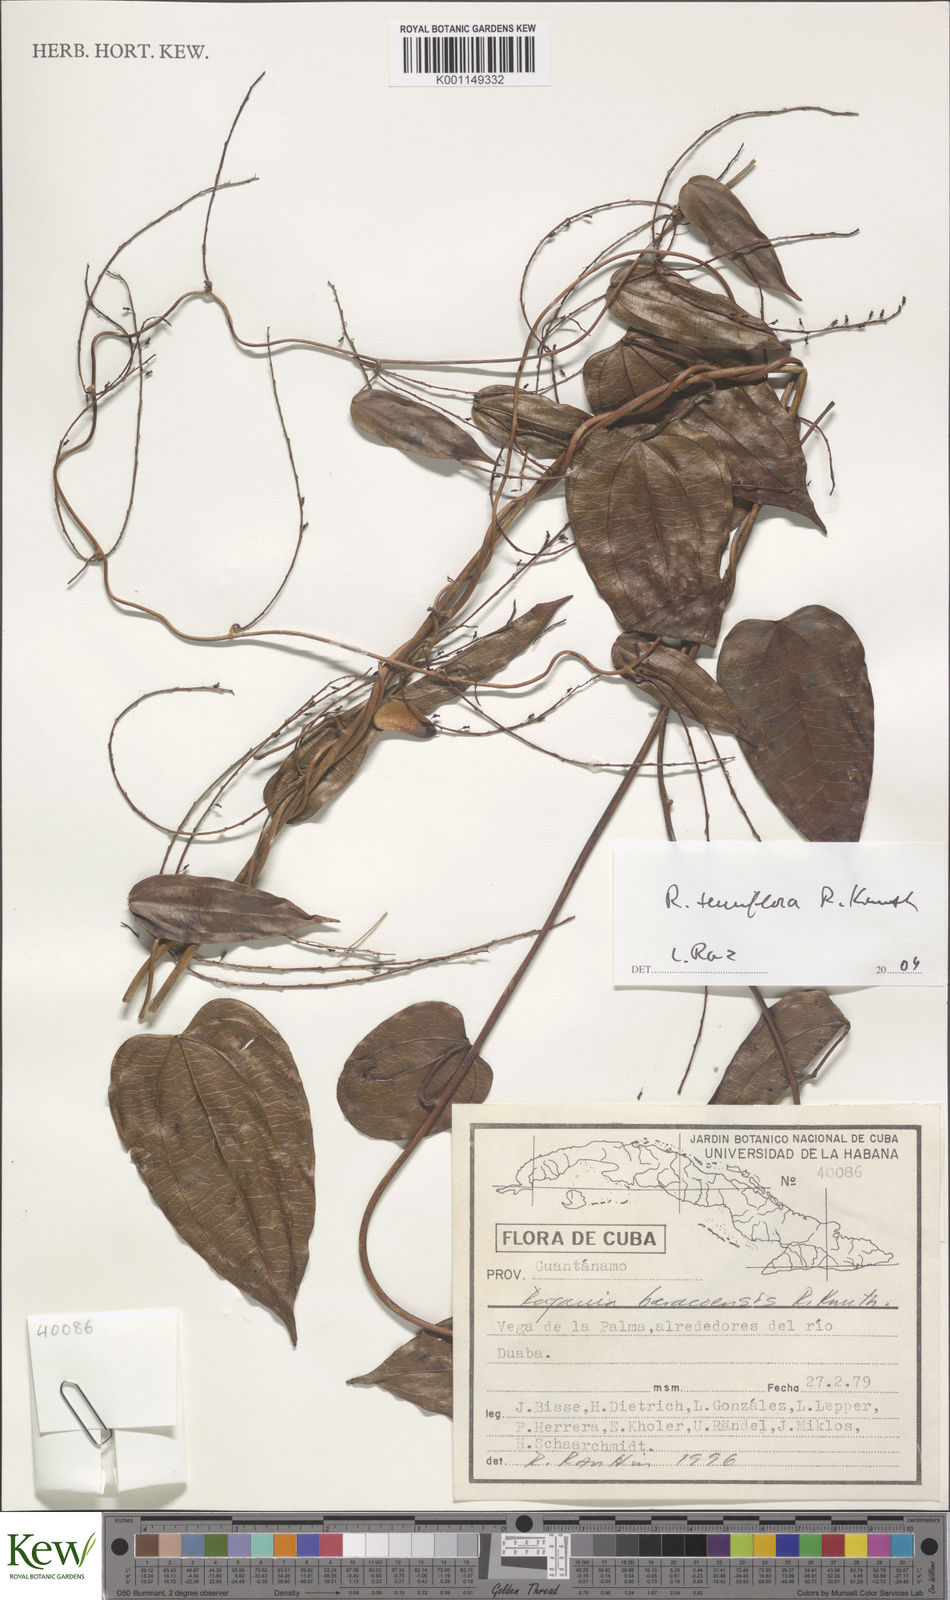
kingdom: Plantae
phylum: Tracheophyta
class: Liliopsida
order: Dioscoreales
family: Dioscoreaceae
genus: Dioscorea
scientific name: Dioscorea bulbifera
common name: Air yam
